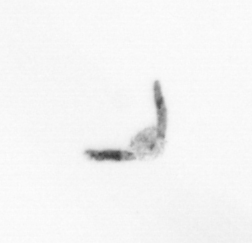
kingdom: Chromista
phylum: Ochrophyta
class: Bacillariophyceae
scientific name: Bacillariophyceae
